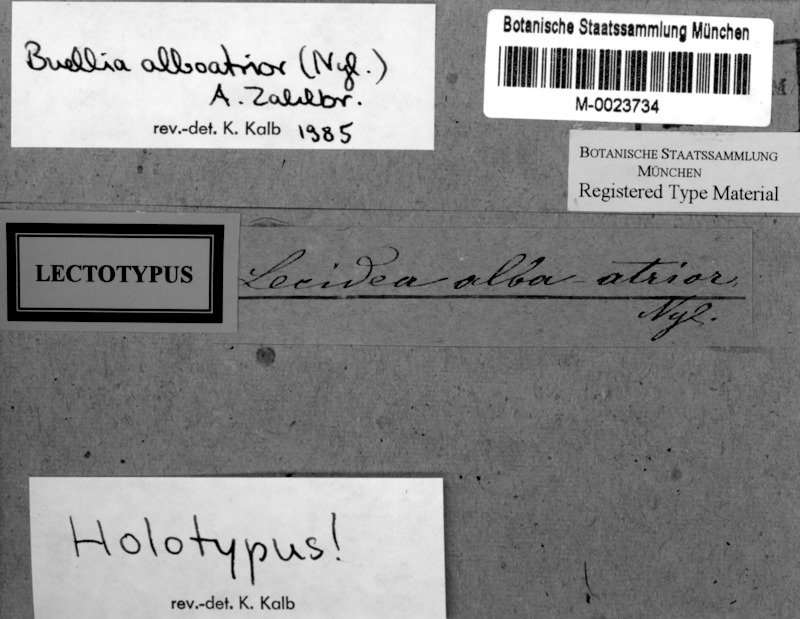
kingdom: Fungi
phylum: Ascomycota
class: Lecanoromycetes
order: Caliciales
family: Caliciaceae
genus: Buellia
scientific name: Buellia
